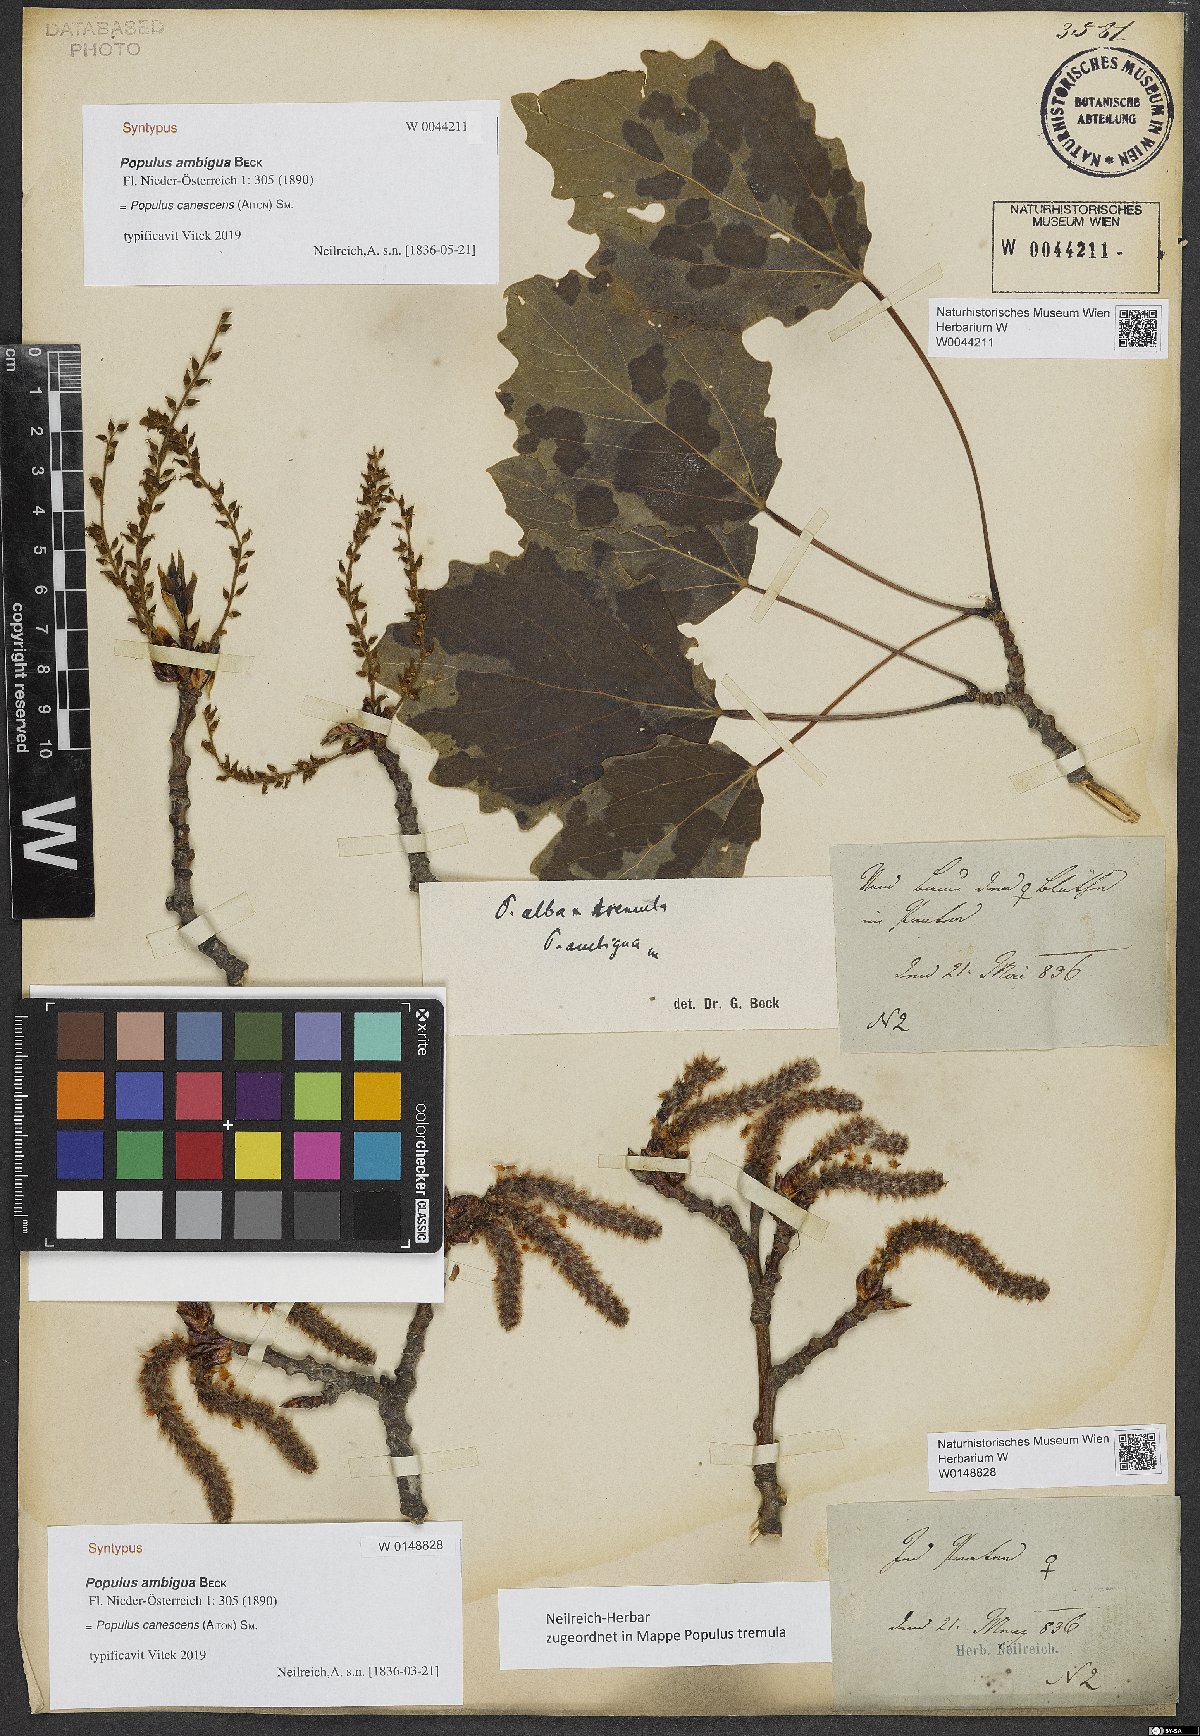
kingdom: Plantae
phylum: Tracheophyta
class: Magnoliopsida
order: Malpighiales
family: Salicaceae
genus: Populus
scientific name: Populus canescens
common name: Gray poplar
